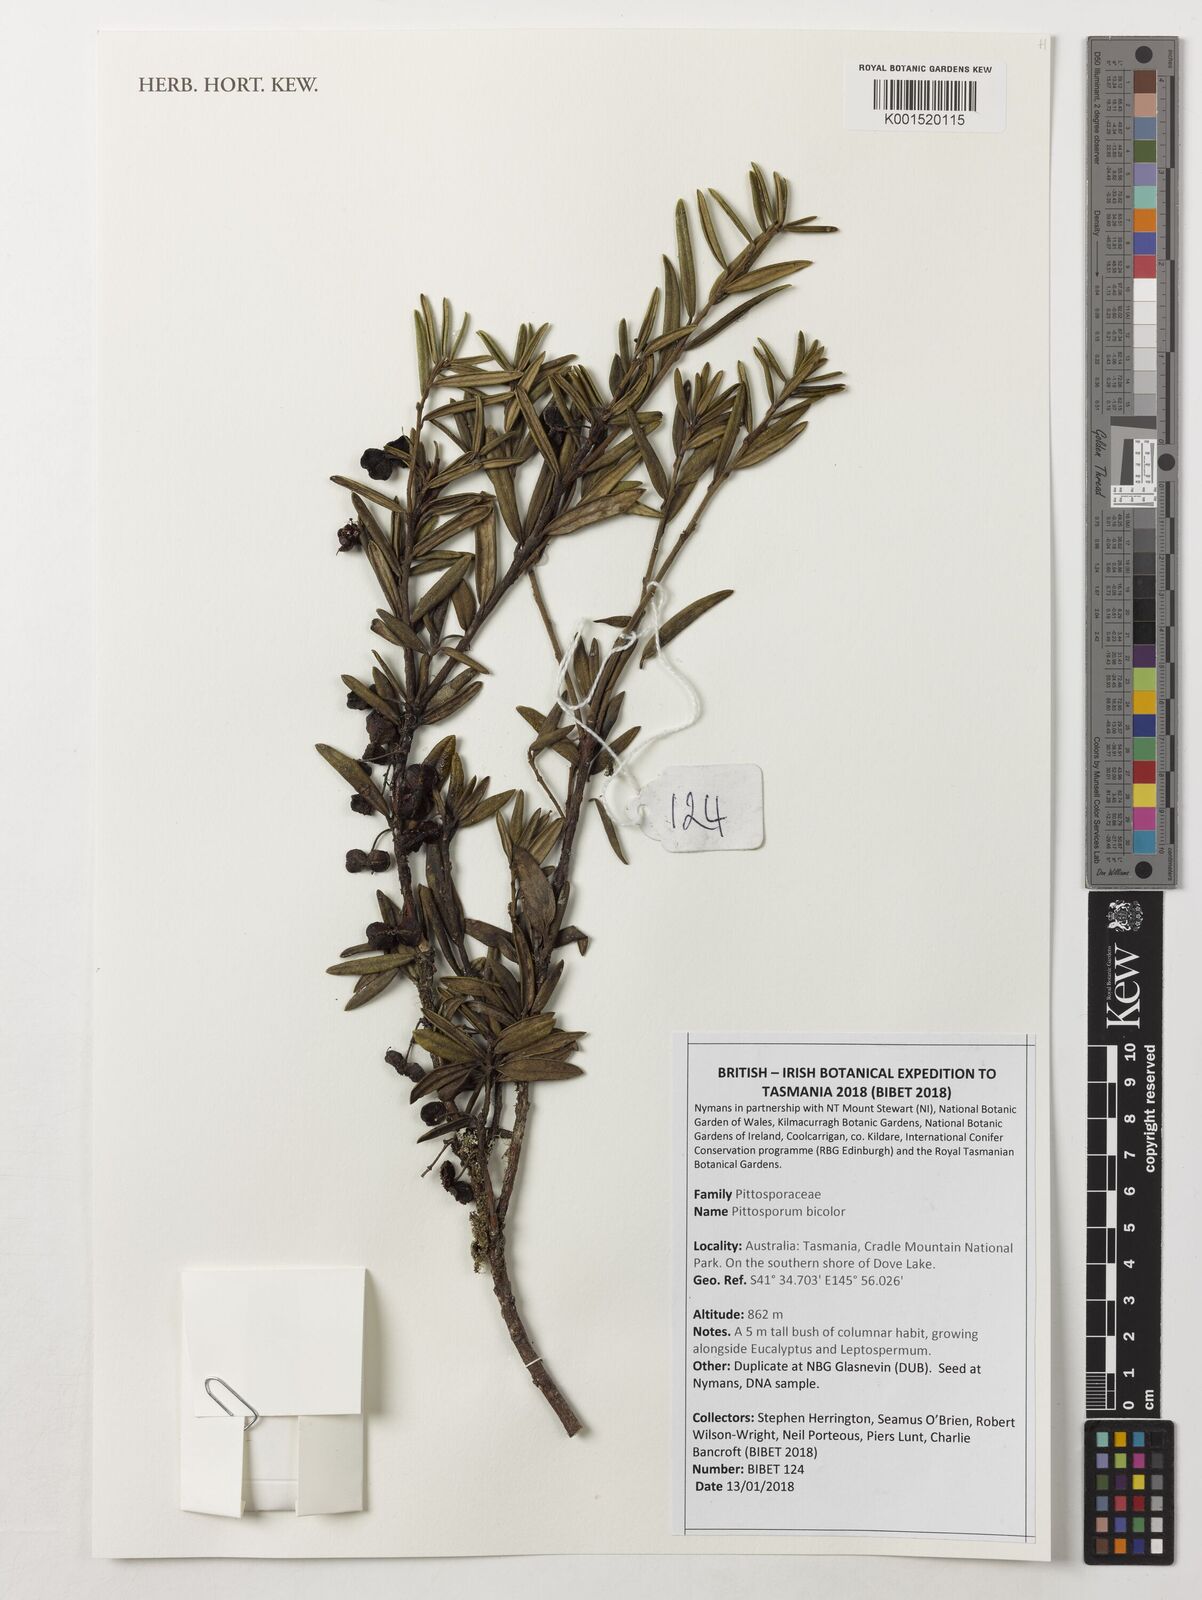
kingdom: Plantae
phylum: Tracheophyta
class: Magnoliopsida
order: Apiales
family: Pittosporaceae
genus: Pittosporum
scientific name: Pittosporum bicolor
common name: Tallowwood
